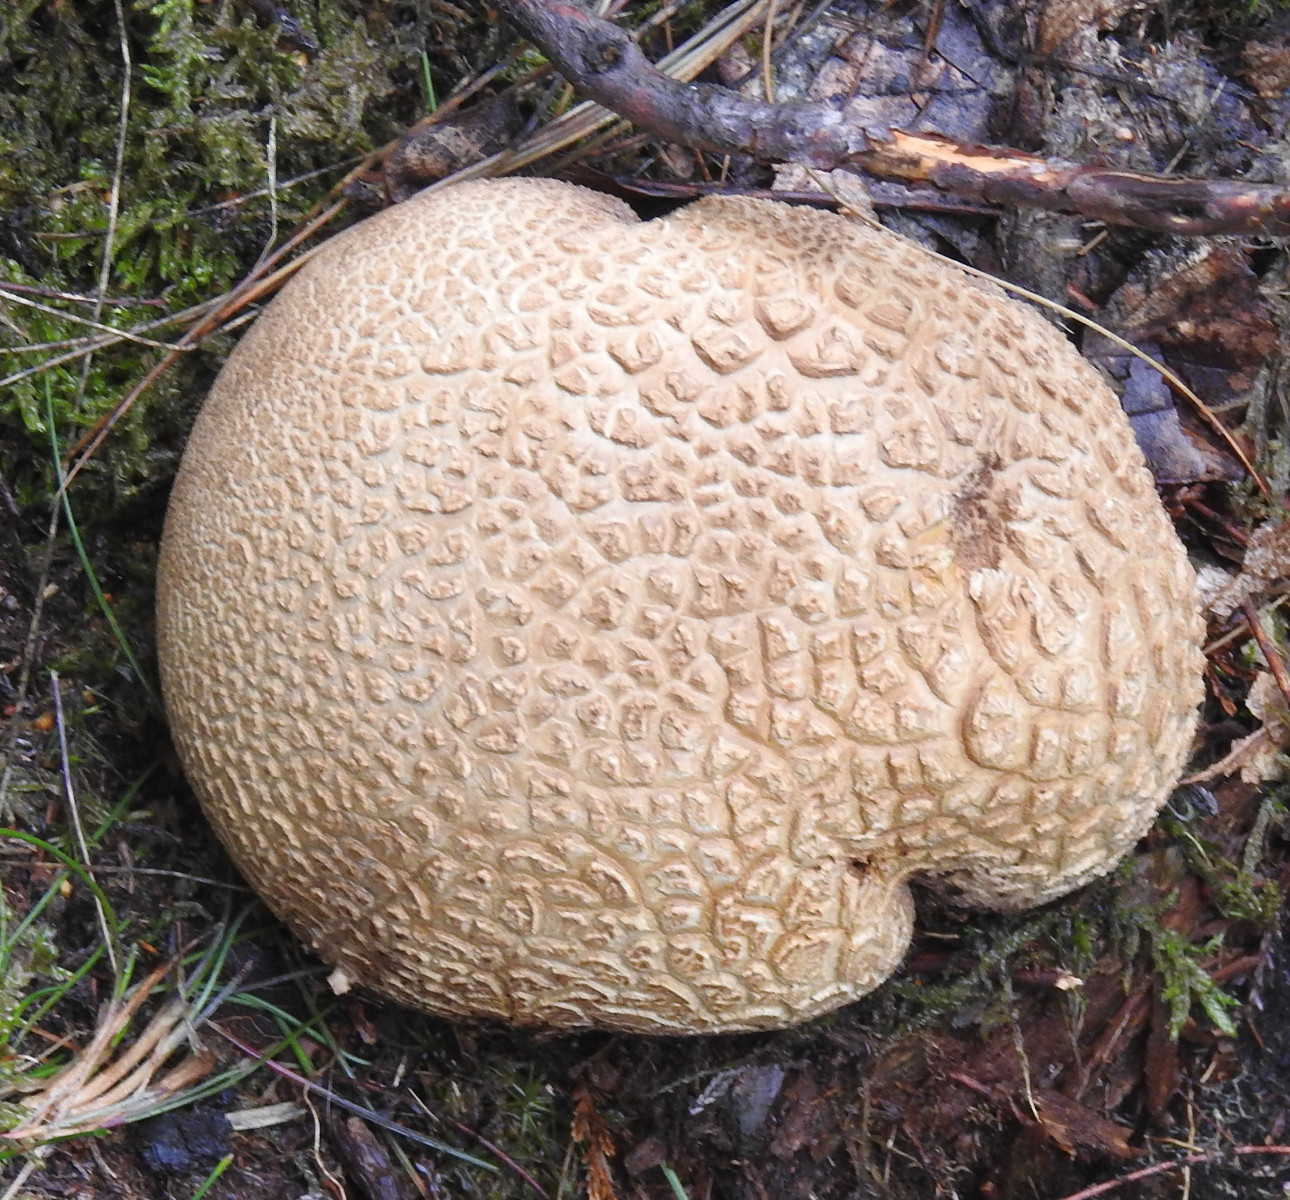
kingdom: Fungi
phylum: Basidiomycota
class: Agaricomycetes
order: Boletales
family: Sclerodermataceae
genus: Scleroderma
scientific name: Scleroderma citrinum
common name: almindelig bruskbold
